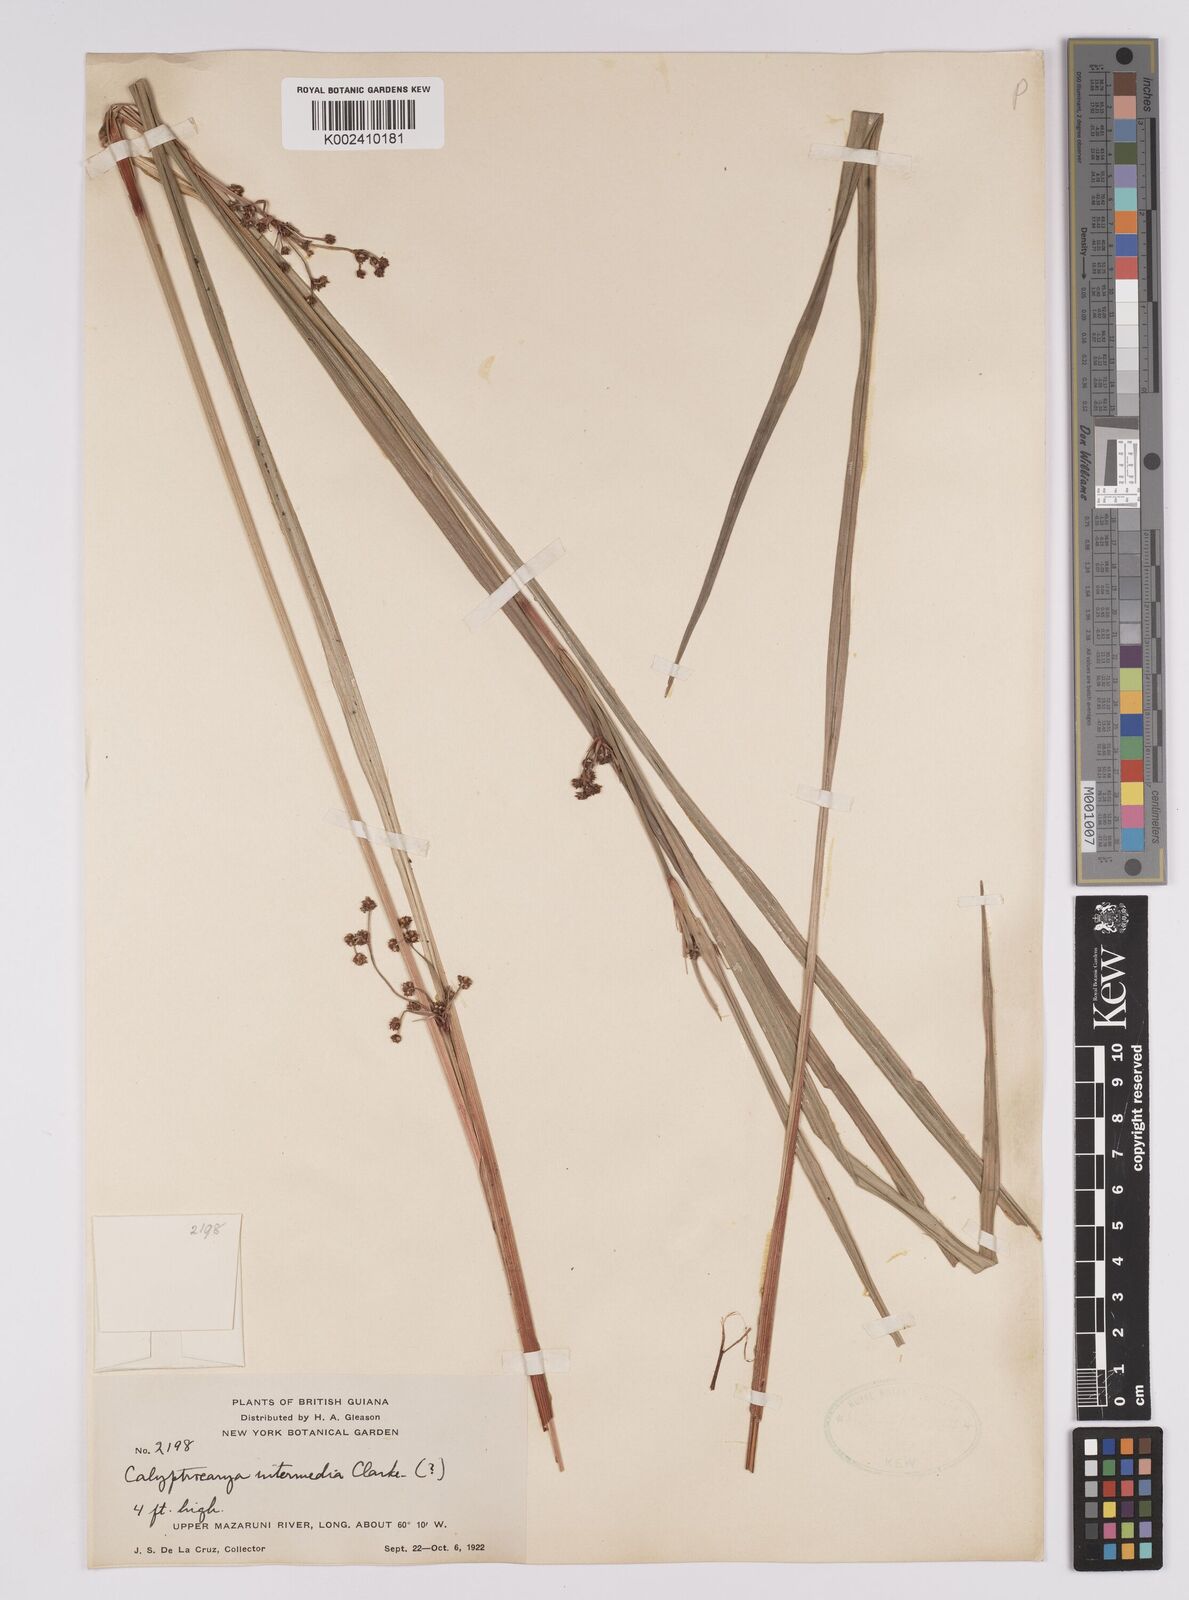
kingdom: Plantae
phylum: Tracheophyta
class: Liliopsida
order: Poales
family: Cyperaceae
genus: Calyptrocarya
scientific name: Calyptrocarya glomerulata
